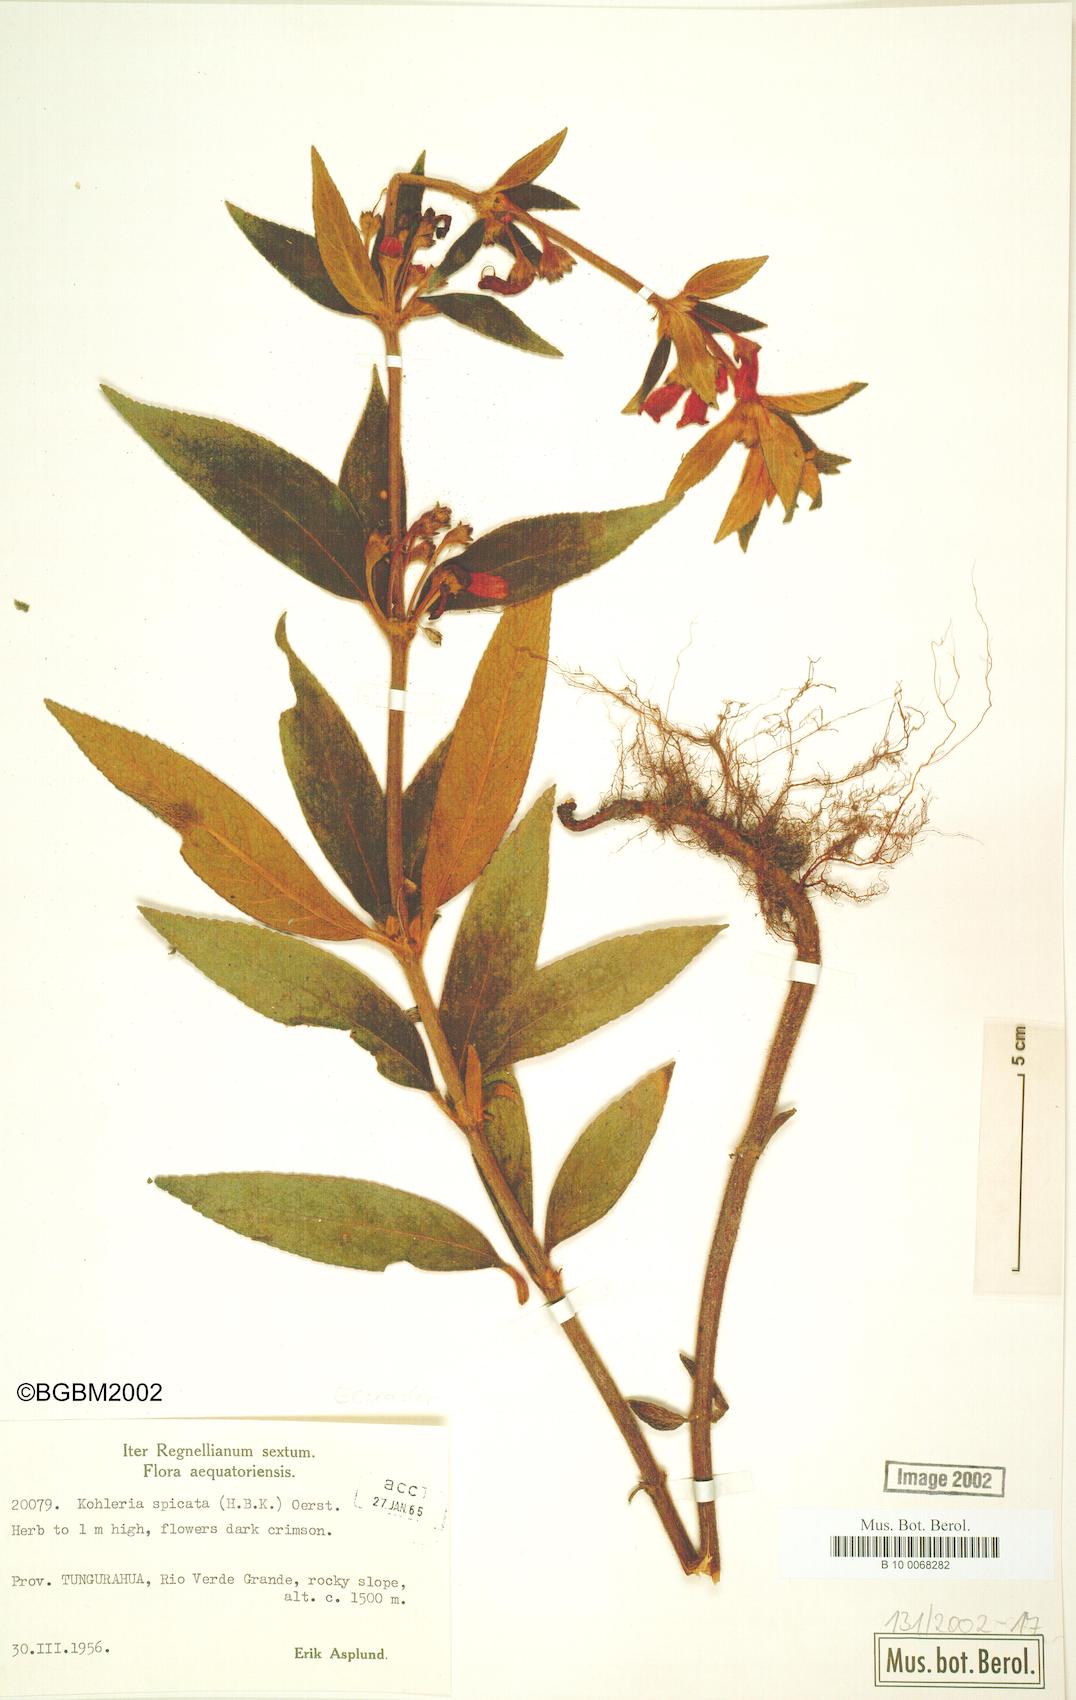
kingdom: Plantae
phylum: Tracheophyta
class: Magnoliopsida
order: Lamiales
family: Gesneriaceae
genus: Kohleria
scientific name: Kohleria spicata
